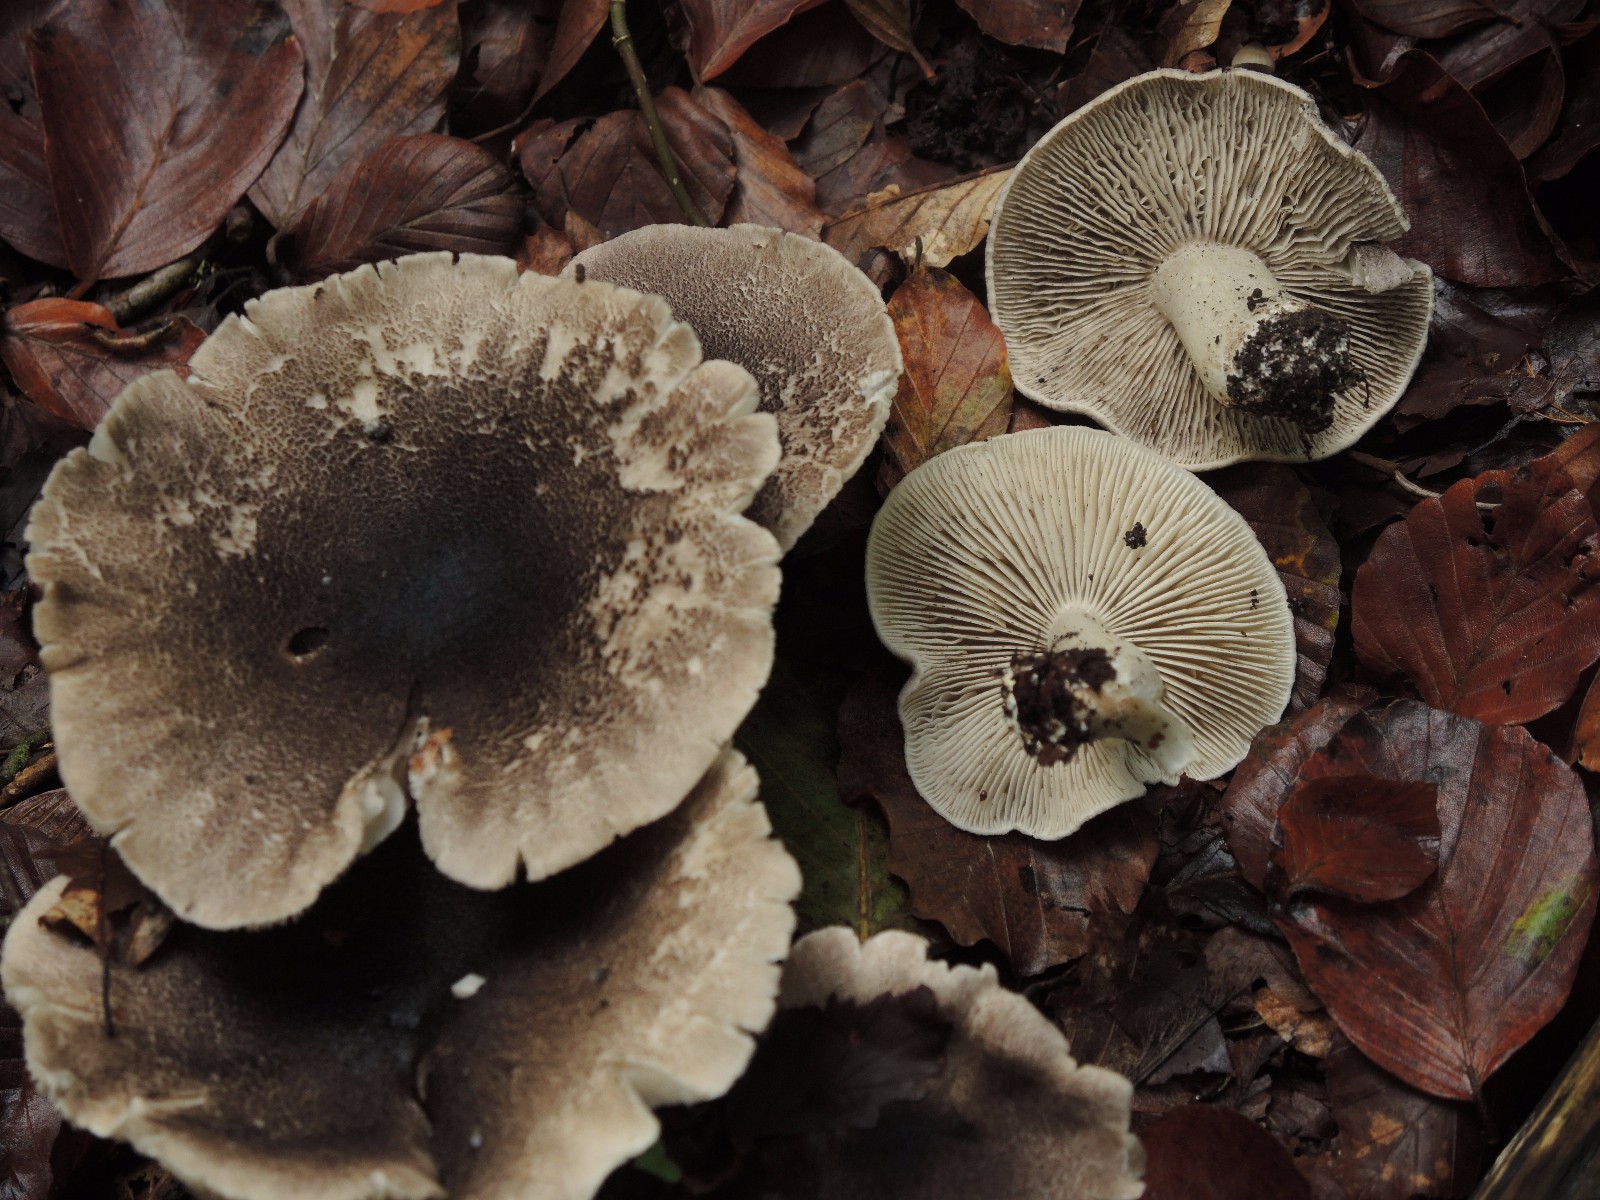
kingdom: Fungi
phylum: Basidiomycota
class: Agaricomycetes
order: Agaricales
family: Tricholomataceae
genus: Tricholoma
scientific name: Tricholoma orirubens
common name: rødbladet ridderhat
